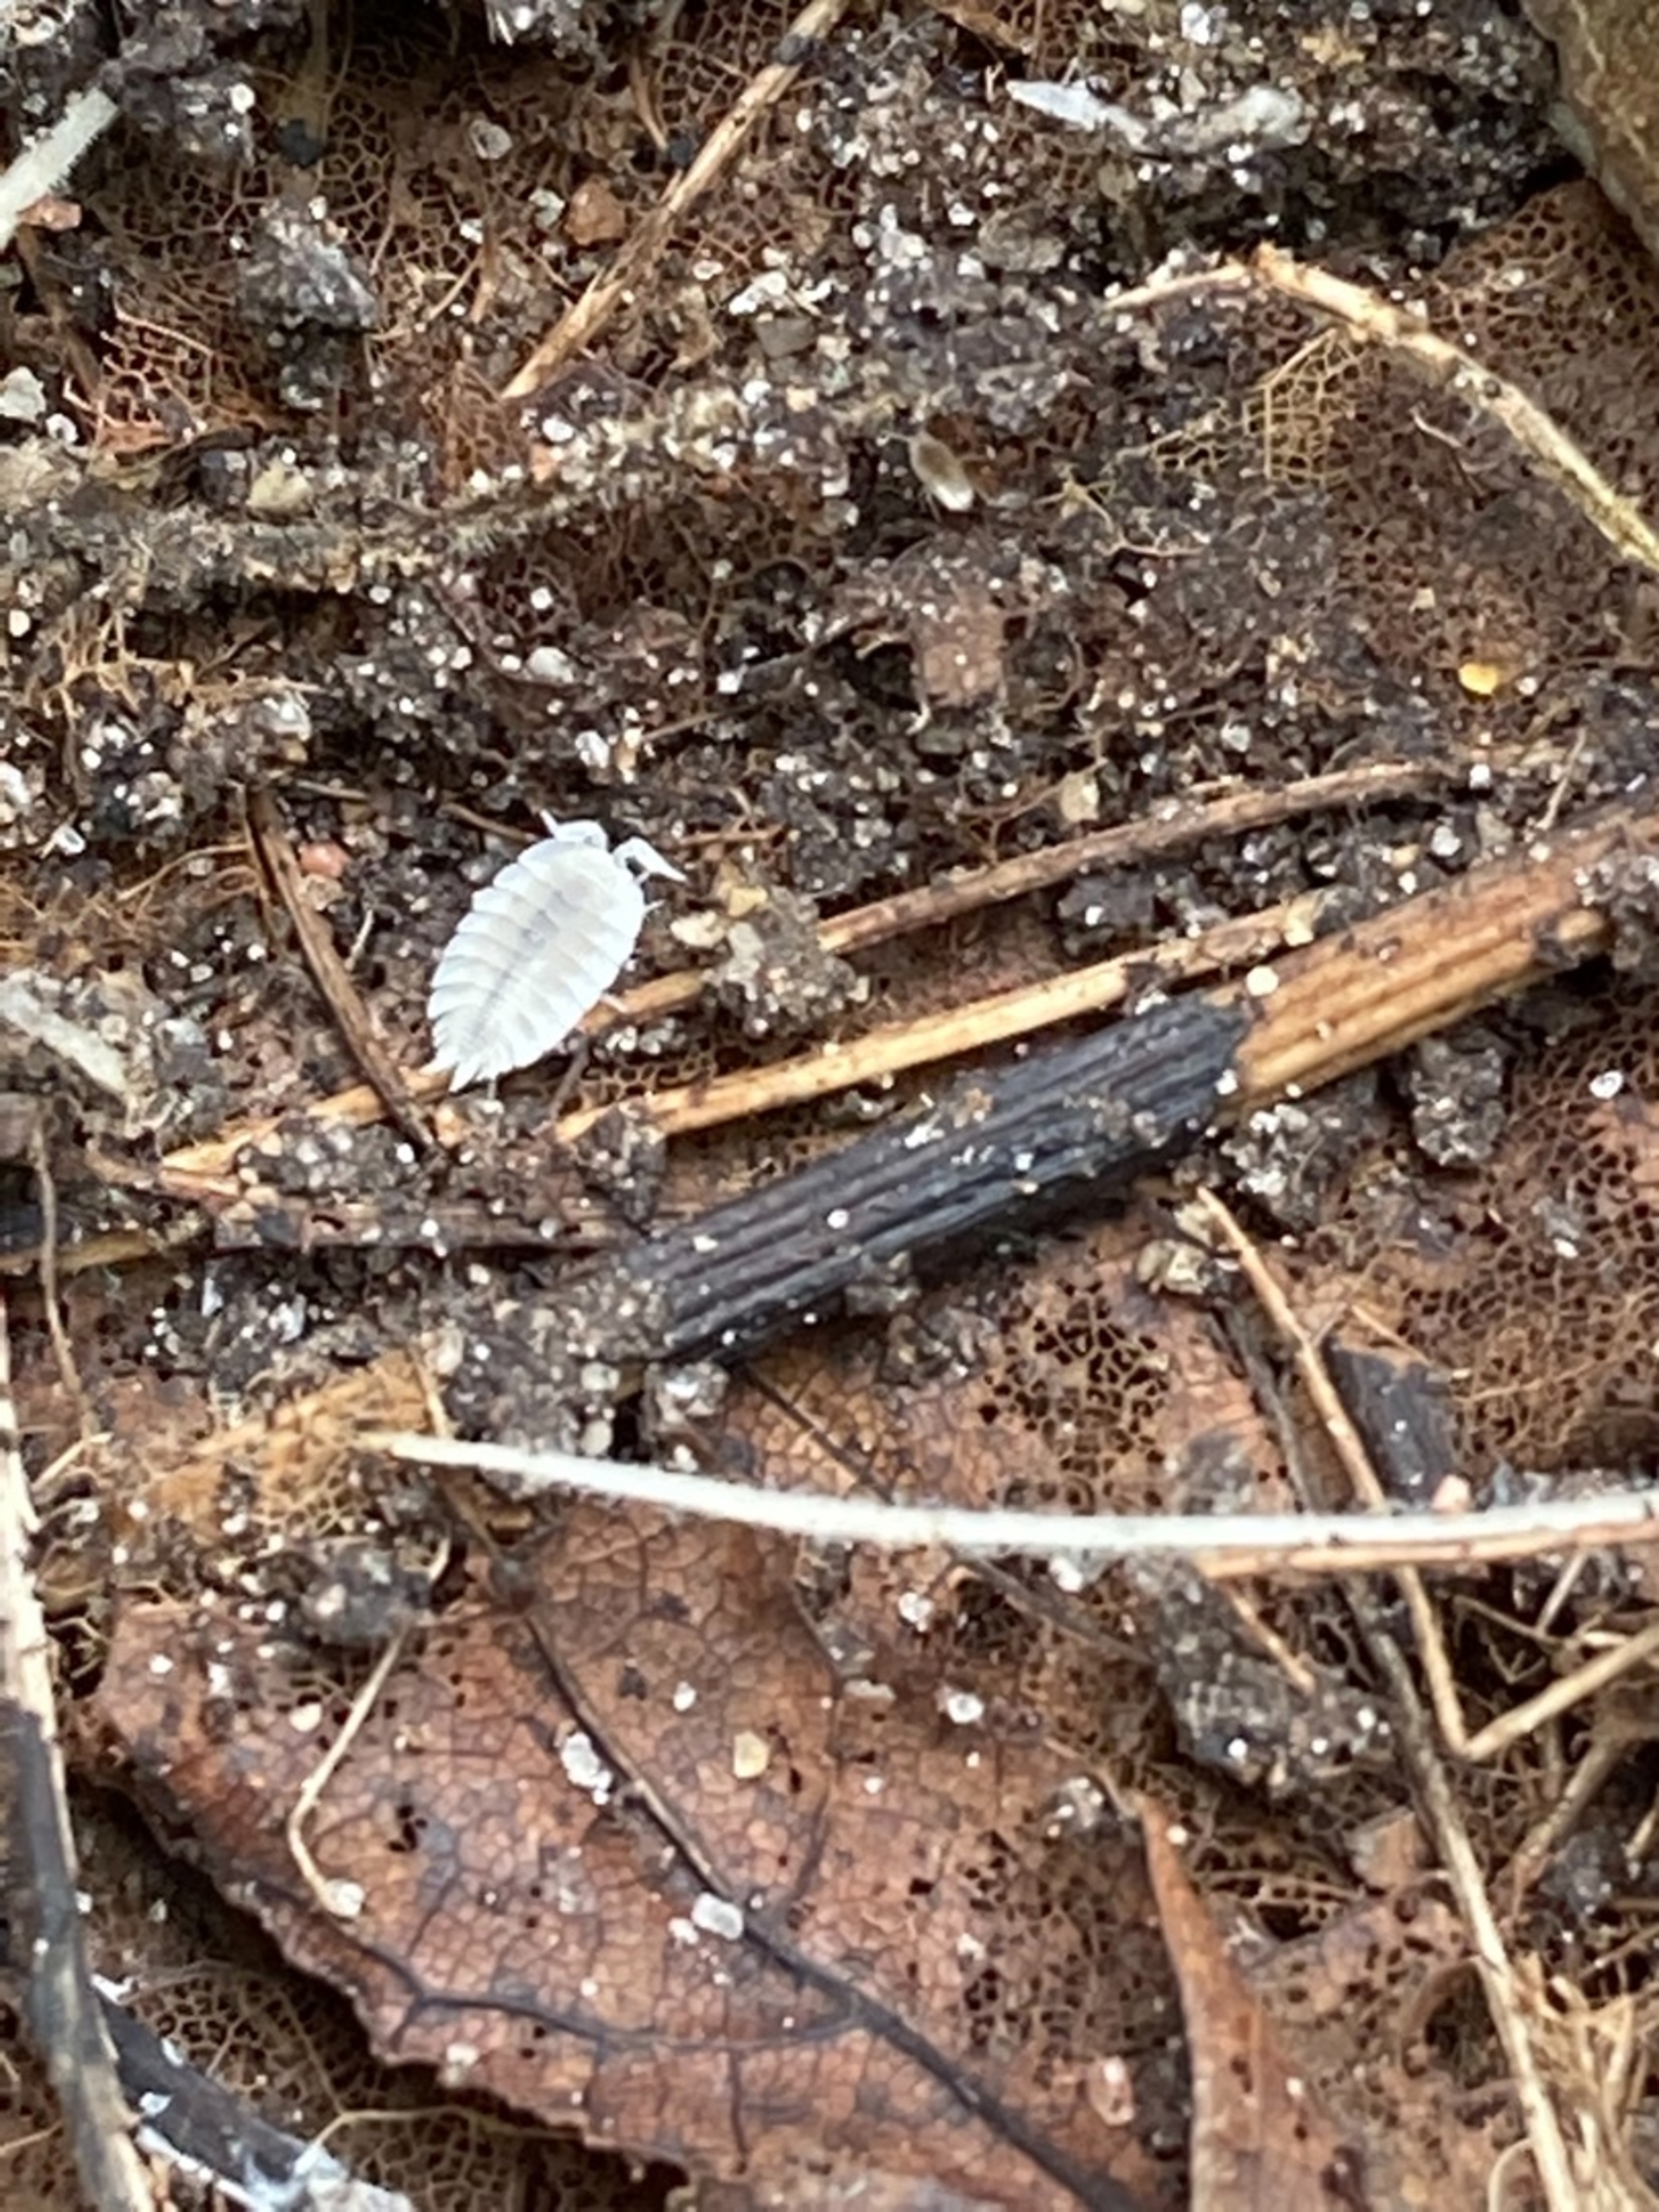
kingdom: Animalia
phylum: Arthropoda
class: Malacostraca
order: Isopoda
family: Platyarthridae
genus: Platyarthrus
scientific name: Platyarthrus hoffmannseggii
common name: Myrebænkebider
